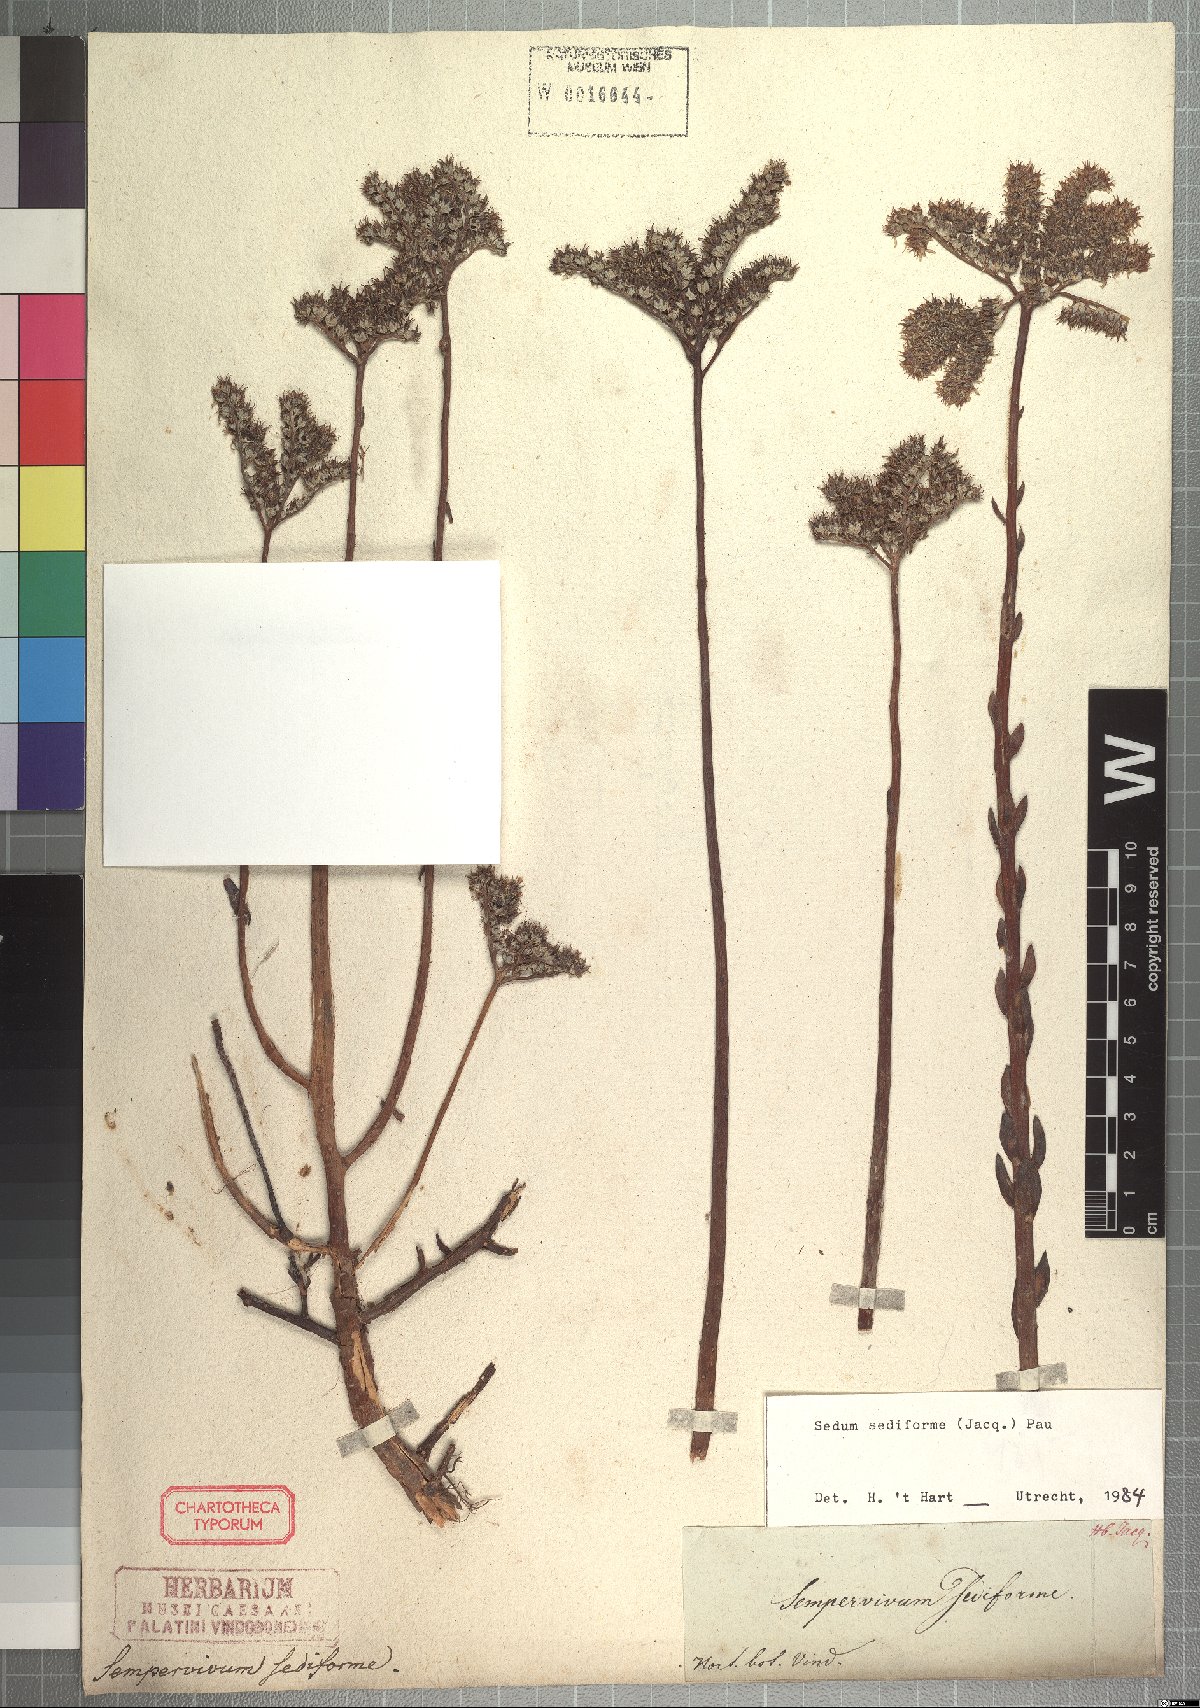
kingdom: Plantae
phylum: Tracheophyta
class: Magnoliopsida
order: Saxifragales
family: Crassulaceae
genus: Petrosedum
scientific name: Petrosedum sediforme
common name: Pale stonecrop
